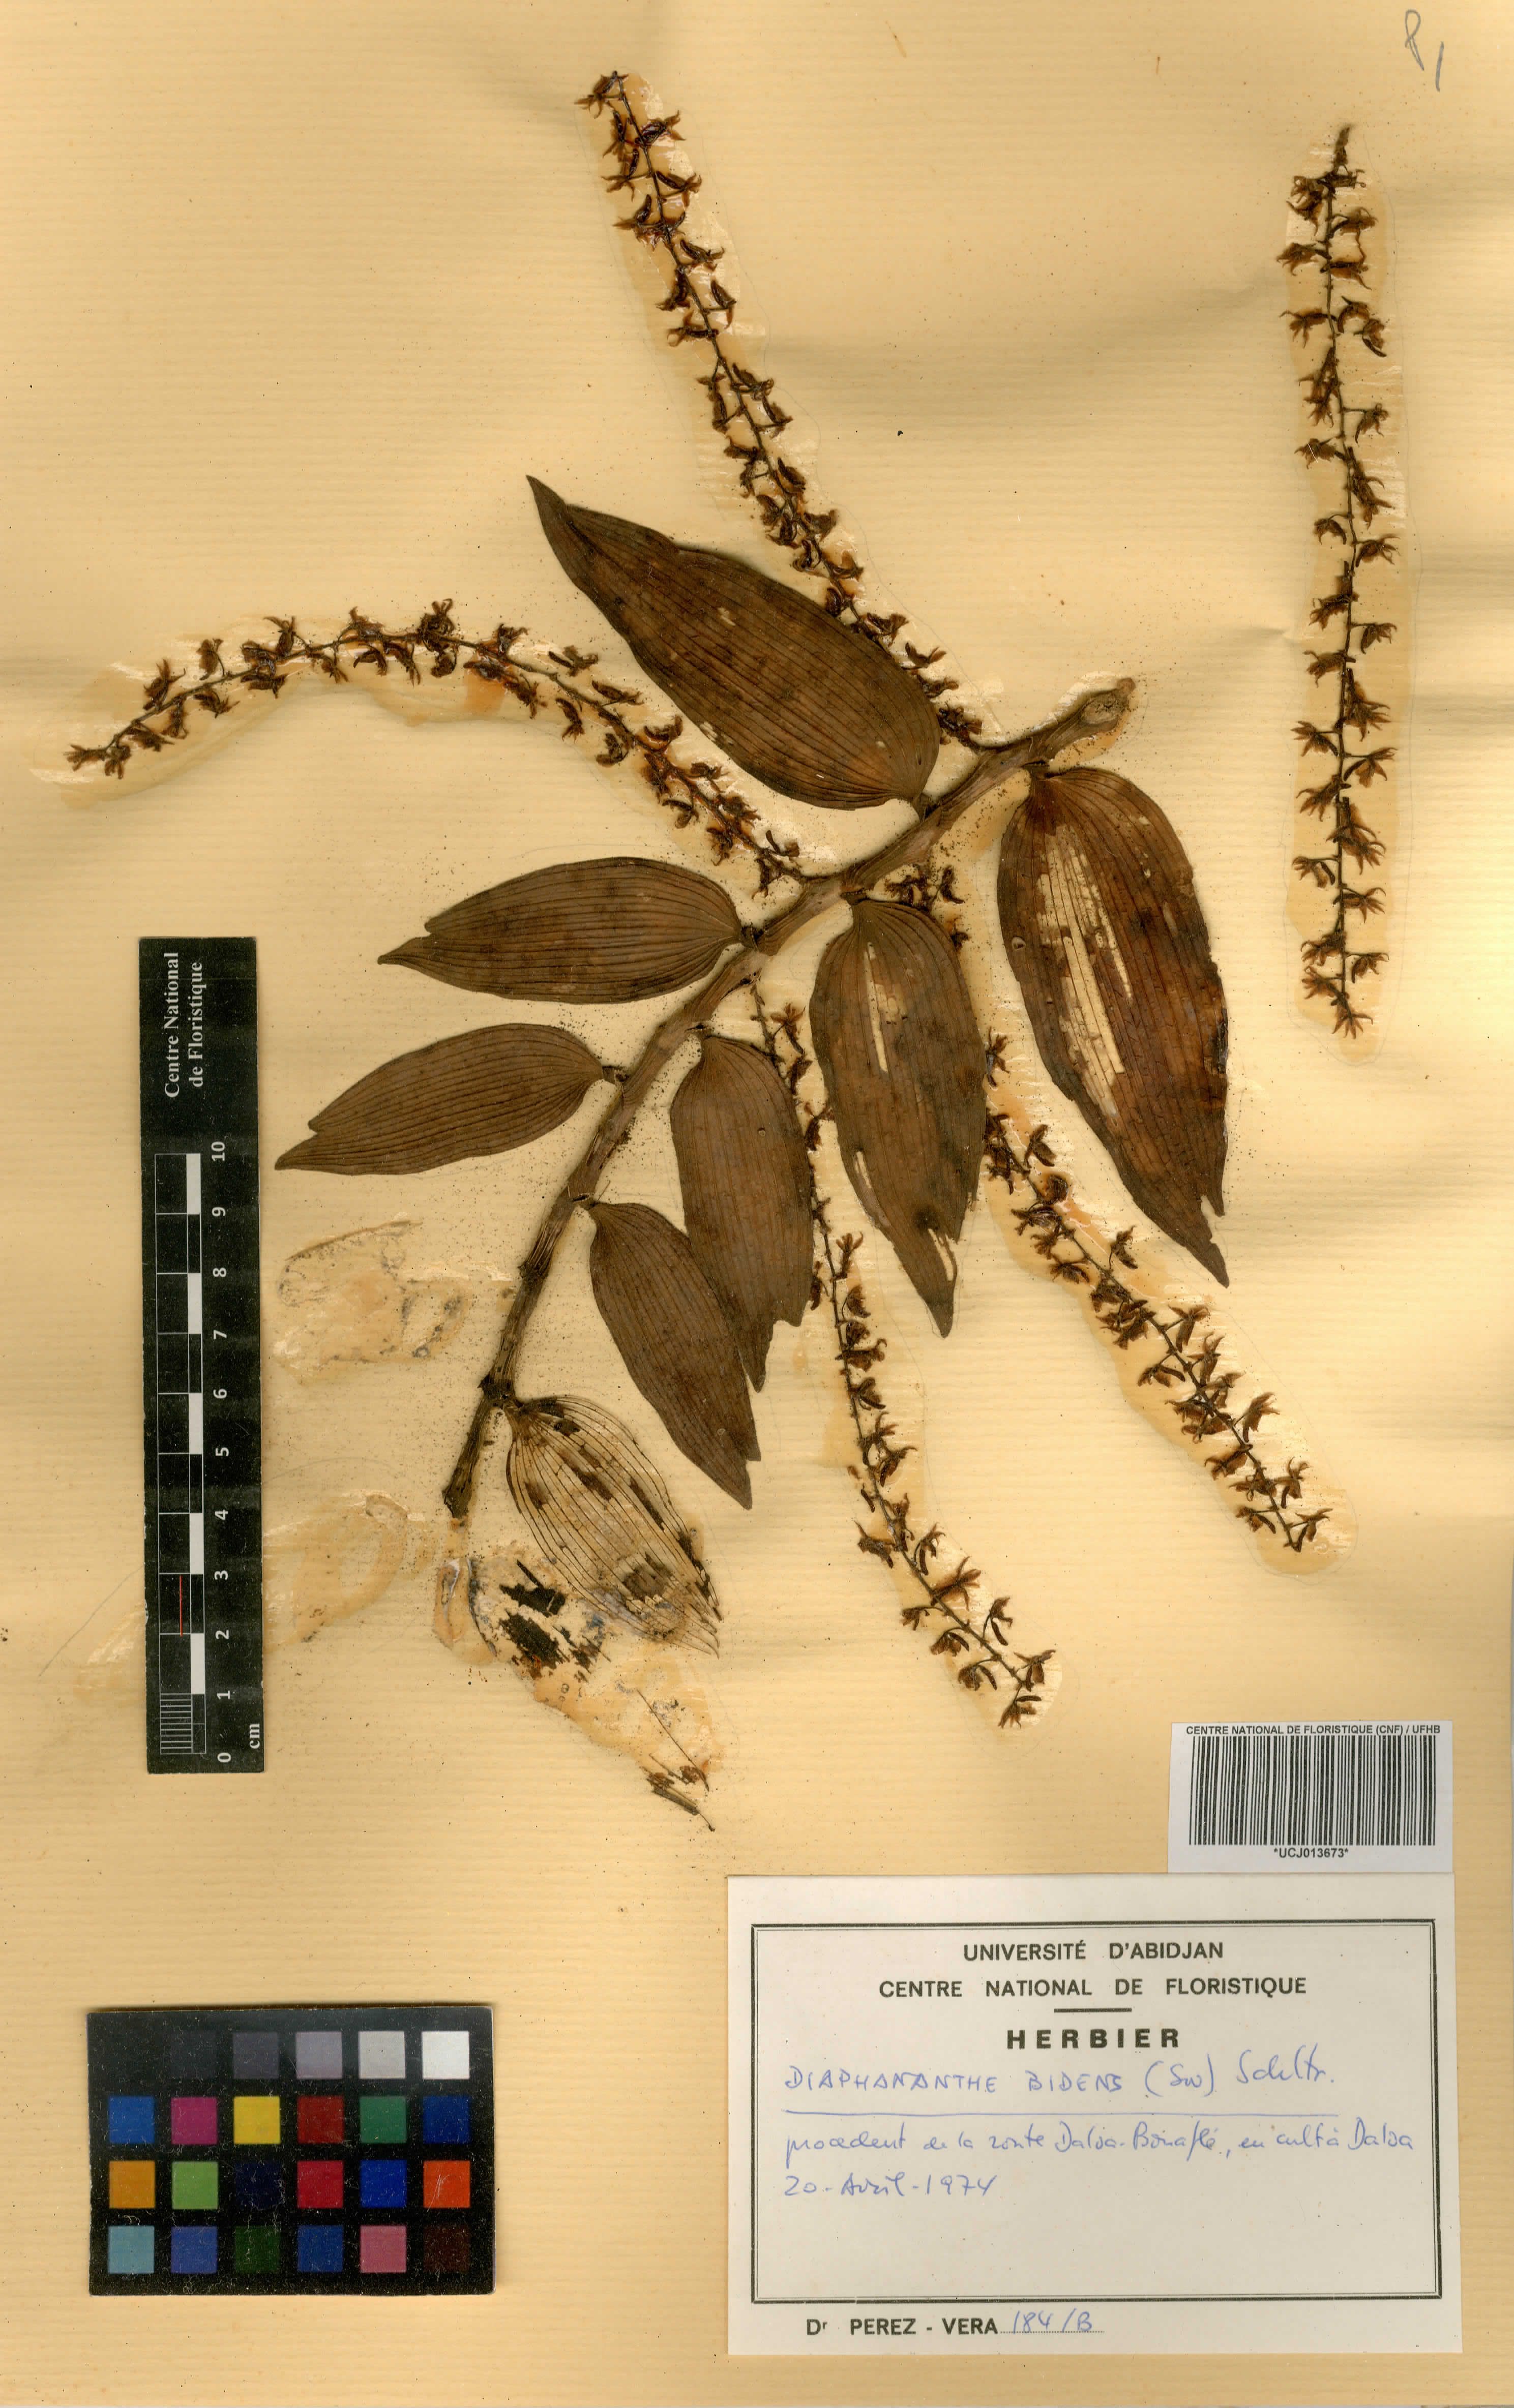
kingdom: Plantae
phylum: Tracheophyta
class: Liliopsida
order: Asparagales
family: Orchidaceae
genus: Diaphananthe
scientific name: Diaphananthe bidens
